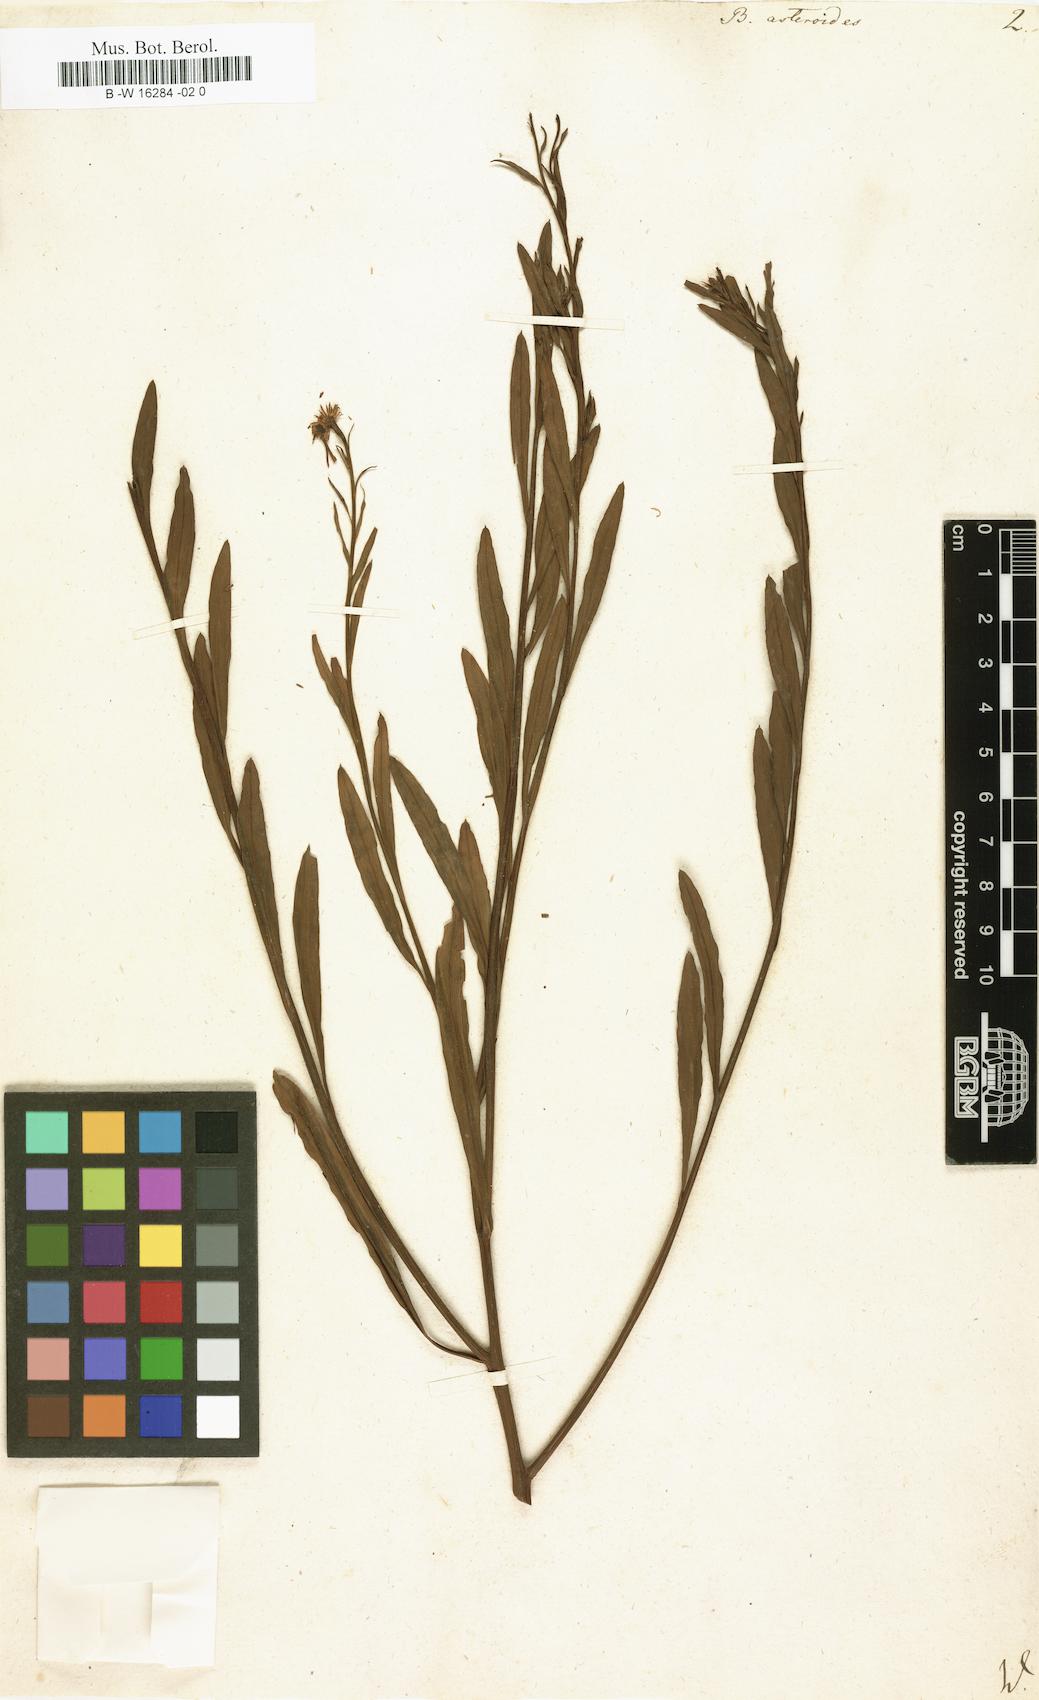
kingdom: Plantae
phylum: Tracheophyta
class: Magnoliopsida
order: Asterales
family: Asteraceae
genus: Boltonia
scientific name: Boltonia asteroides
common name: False chamomile
